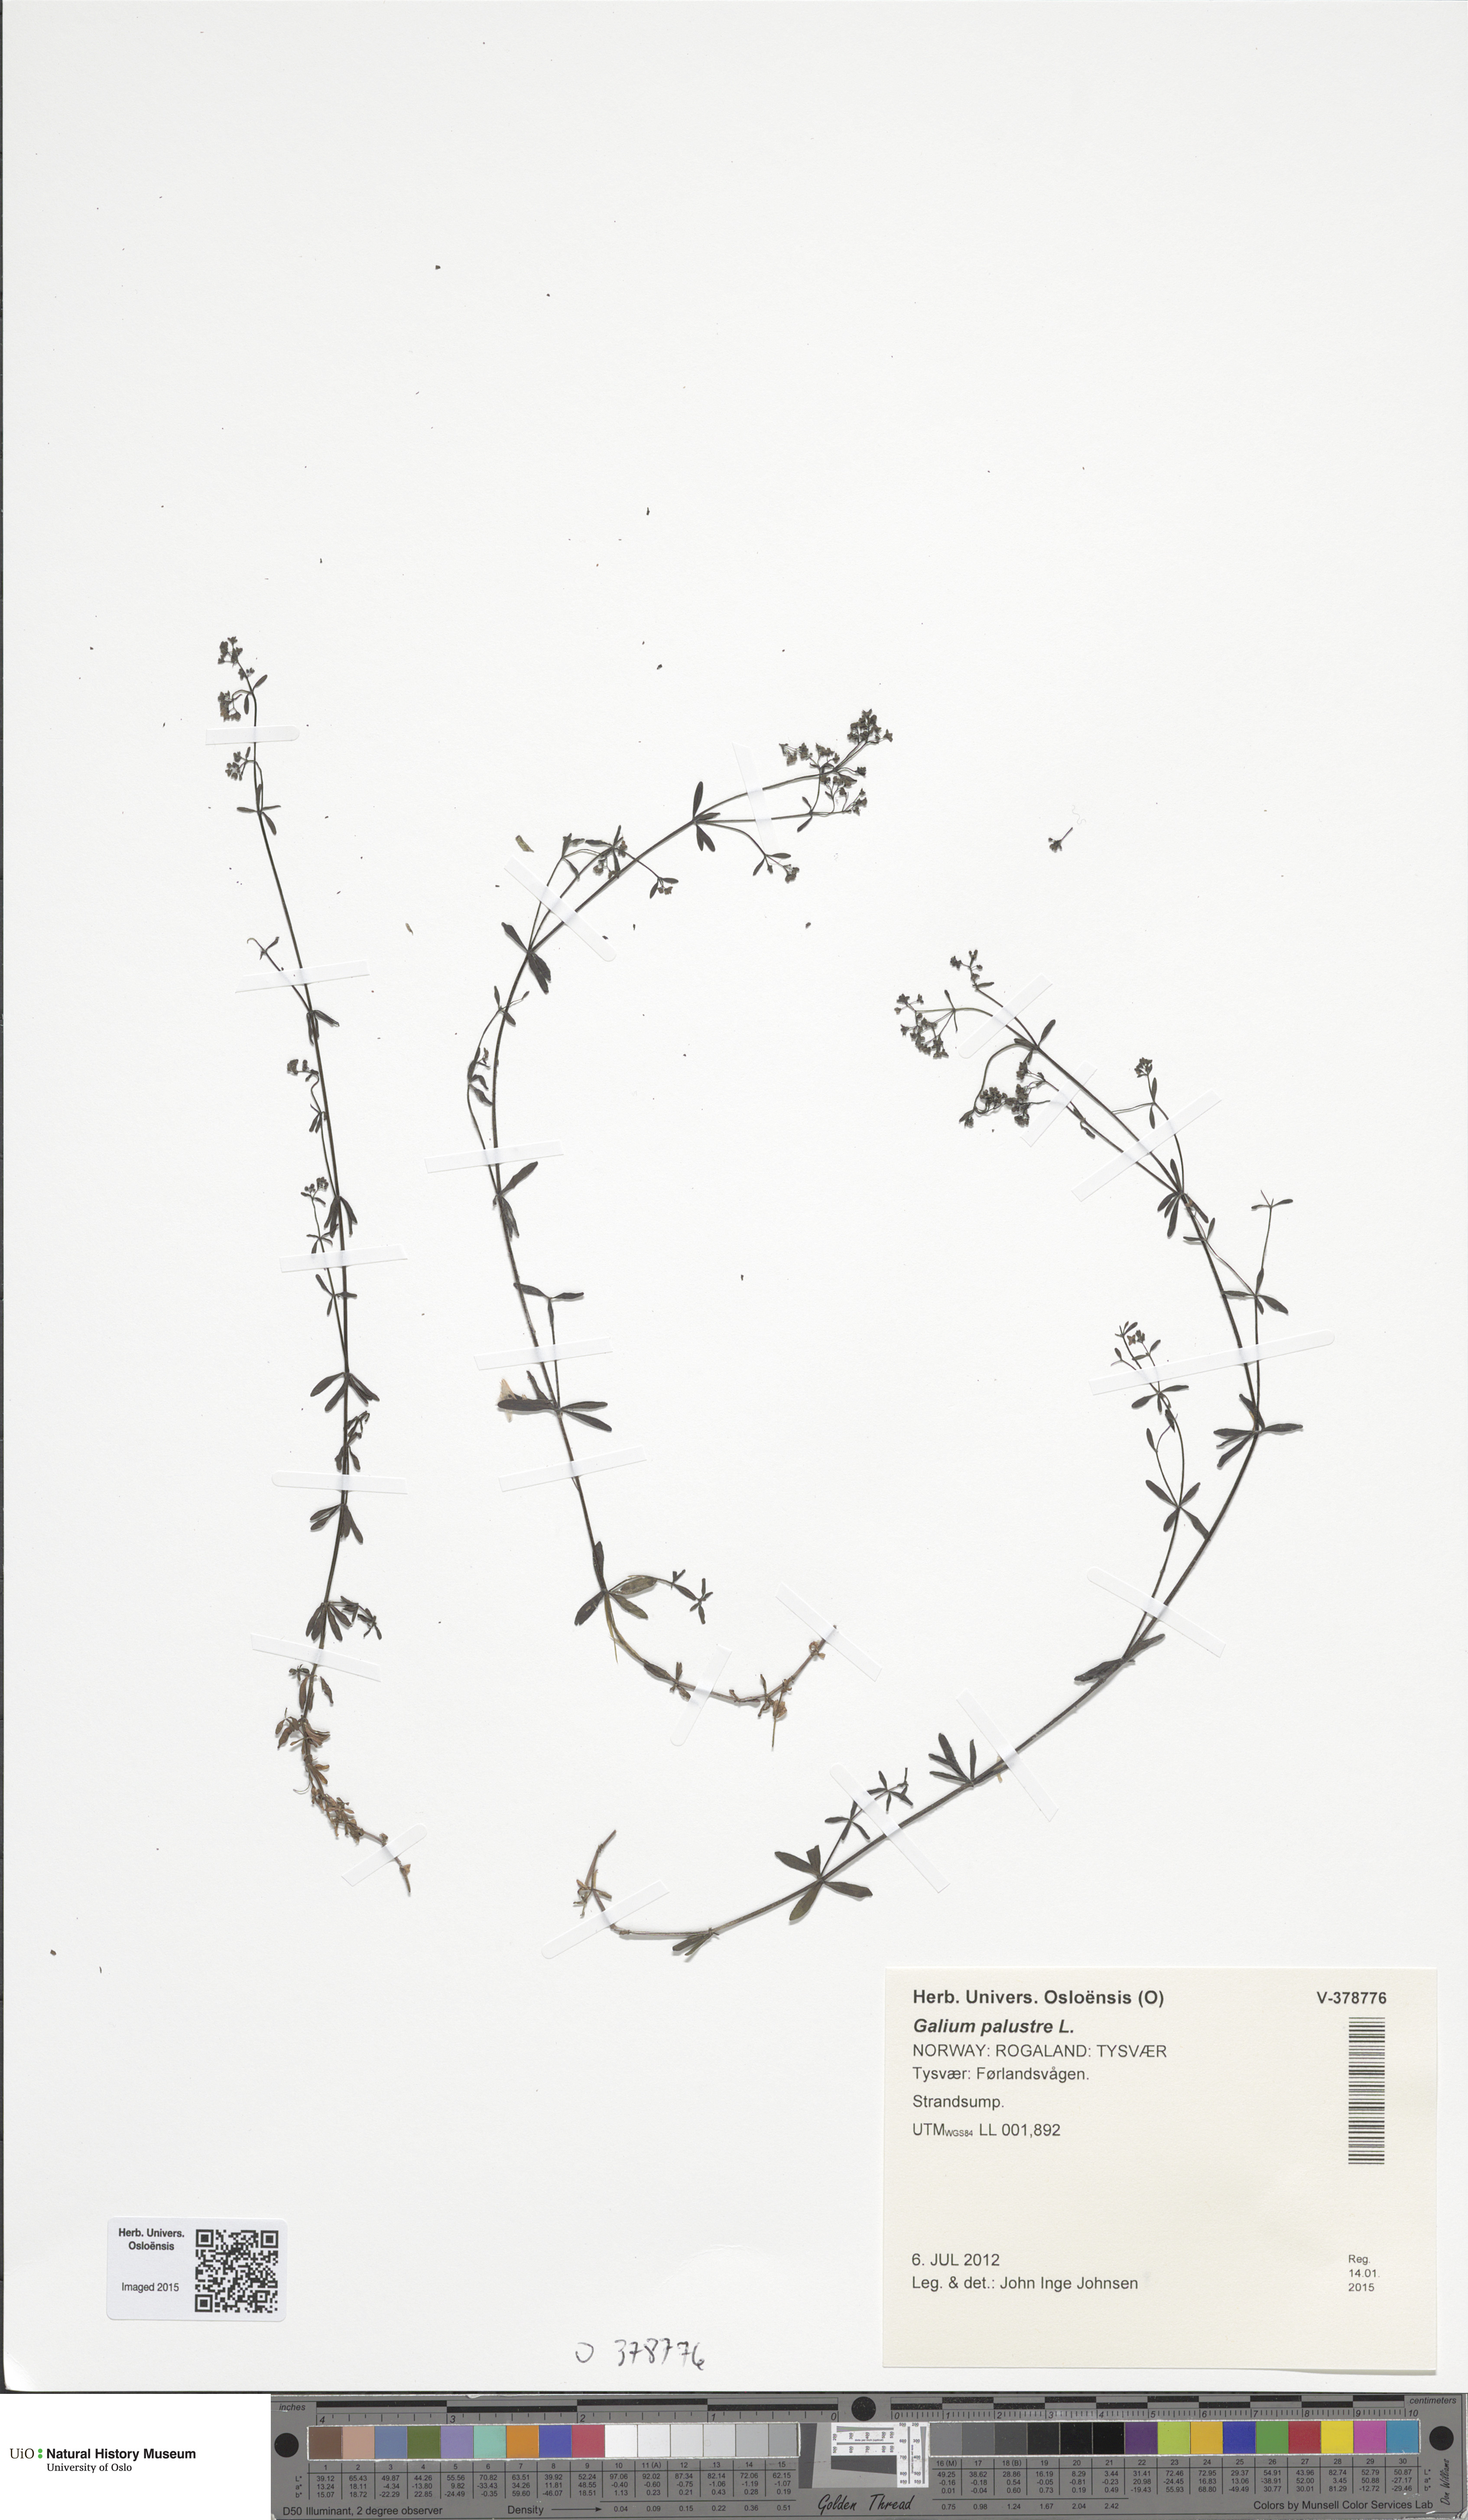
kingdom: Plantae
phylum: Tracheophyta
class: Magnoliopsida
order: Gentianales
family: Rubiaceae
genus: Galium
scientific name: Galium palustre
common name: Common marsh-bedstraw
